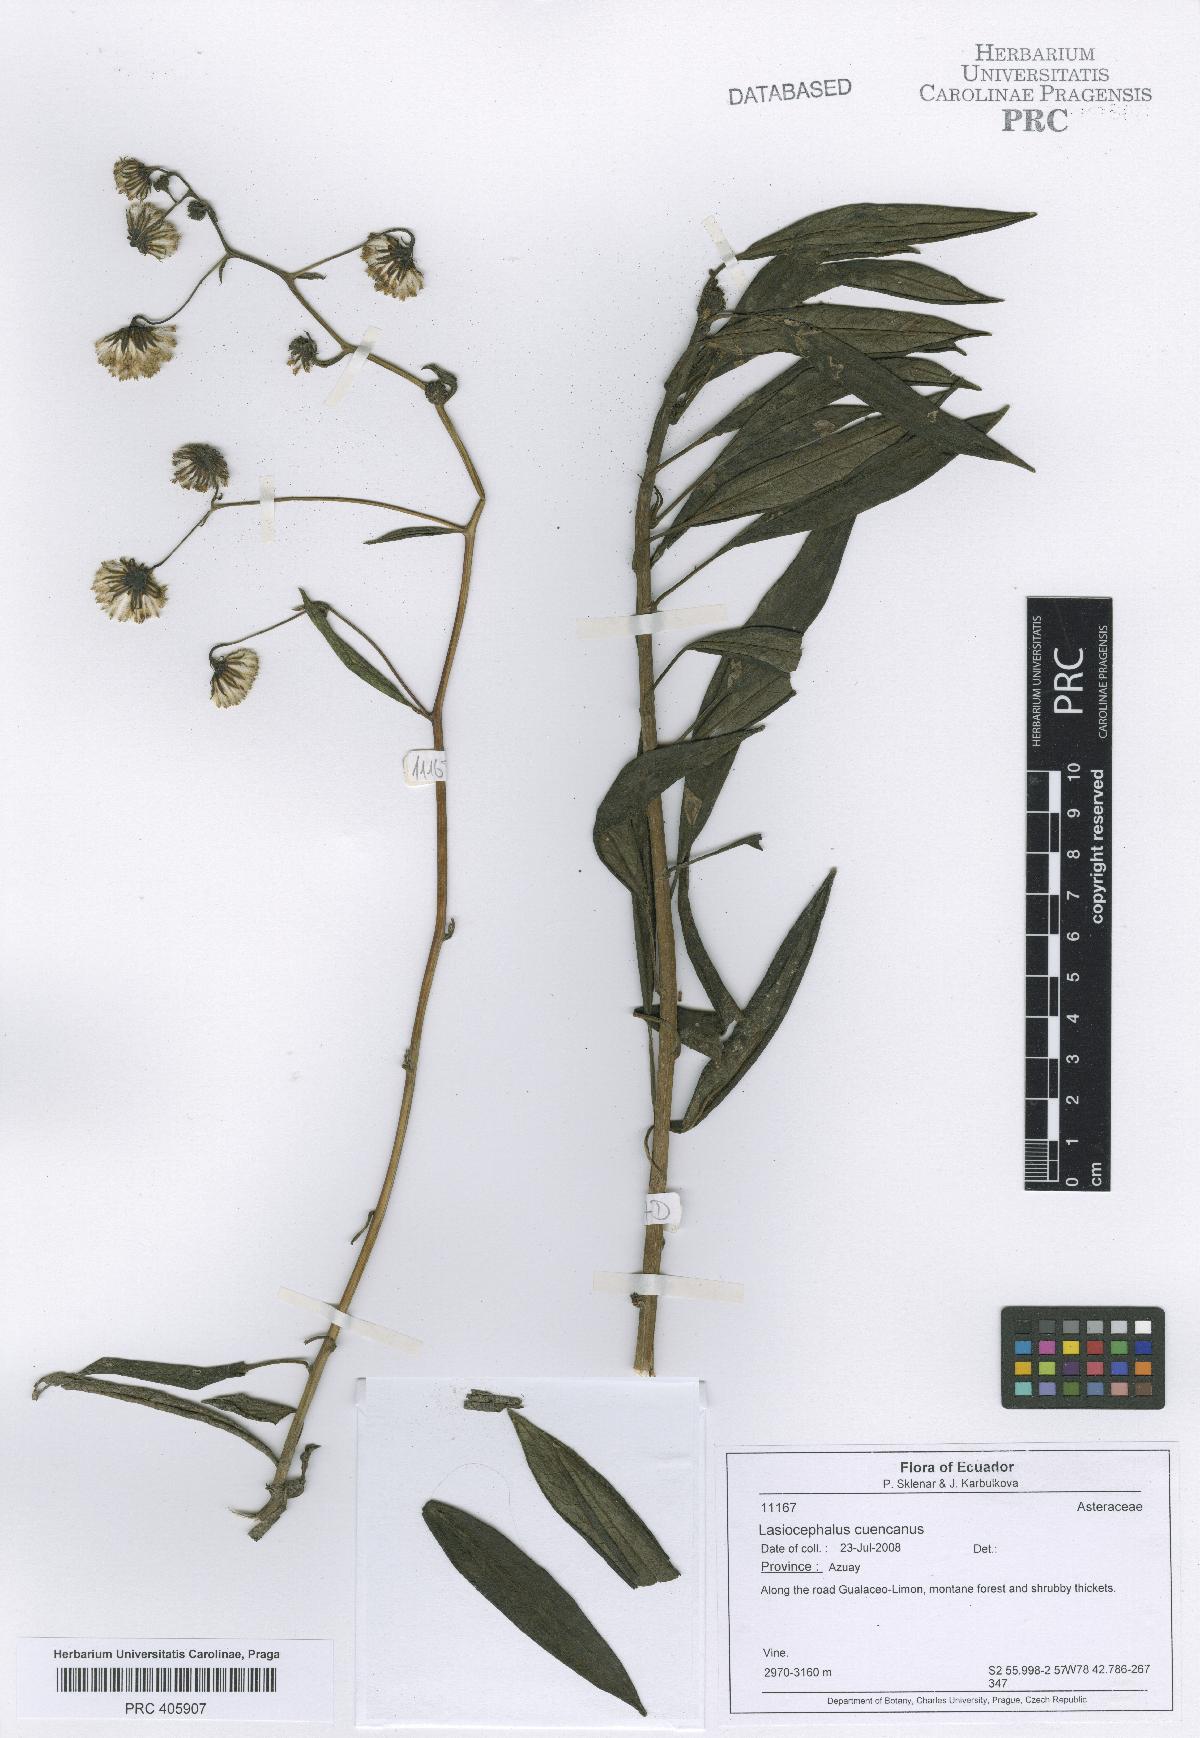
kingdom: Plantae
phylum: Tracheophyta
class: Magnoliopsida
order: Asterales
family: Asteraceae
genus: Aetheolaena
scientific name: Aetheolaena cuencana
